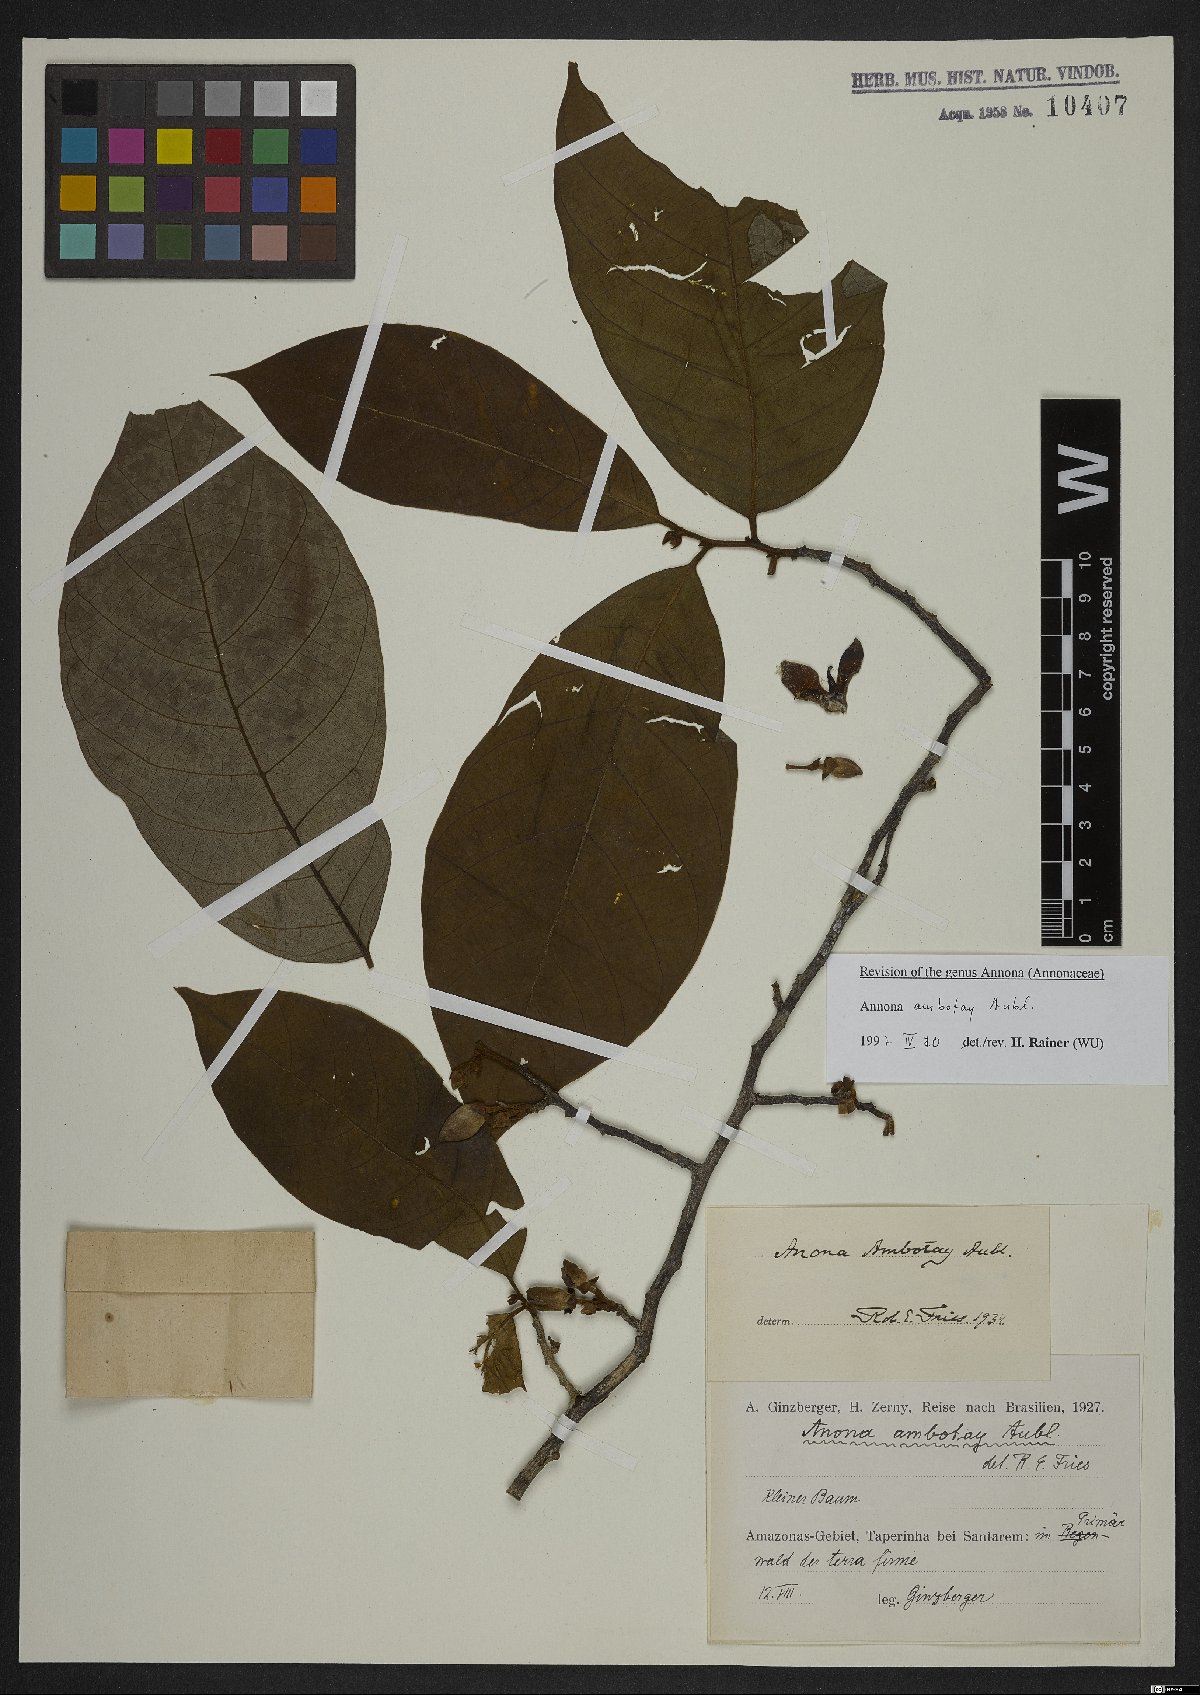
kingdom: Plantae
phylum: Tracheophyta
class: Magnoliopsida
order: Magnoliales
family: Annonaceae
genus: Annona
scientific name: Annona ambotay
